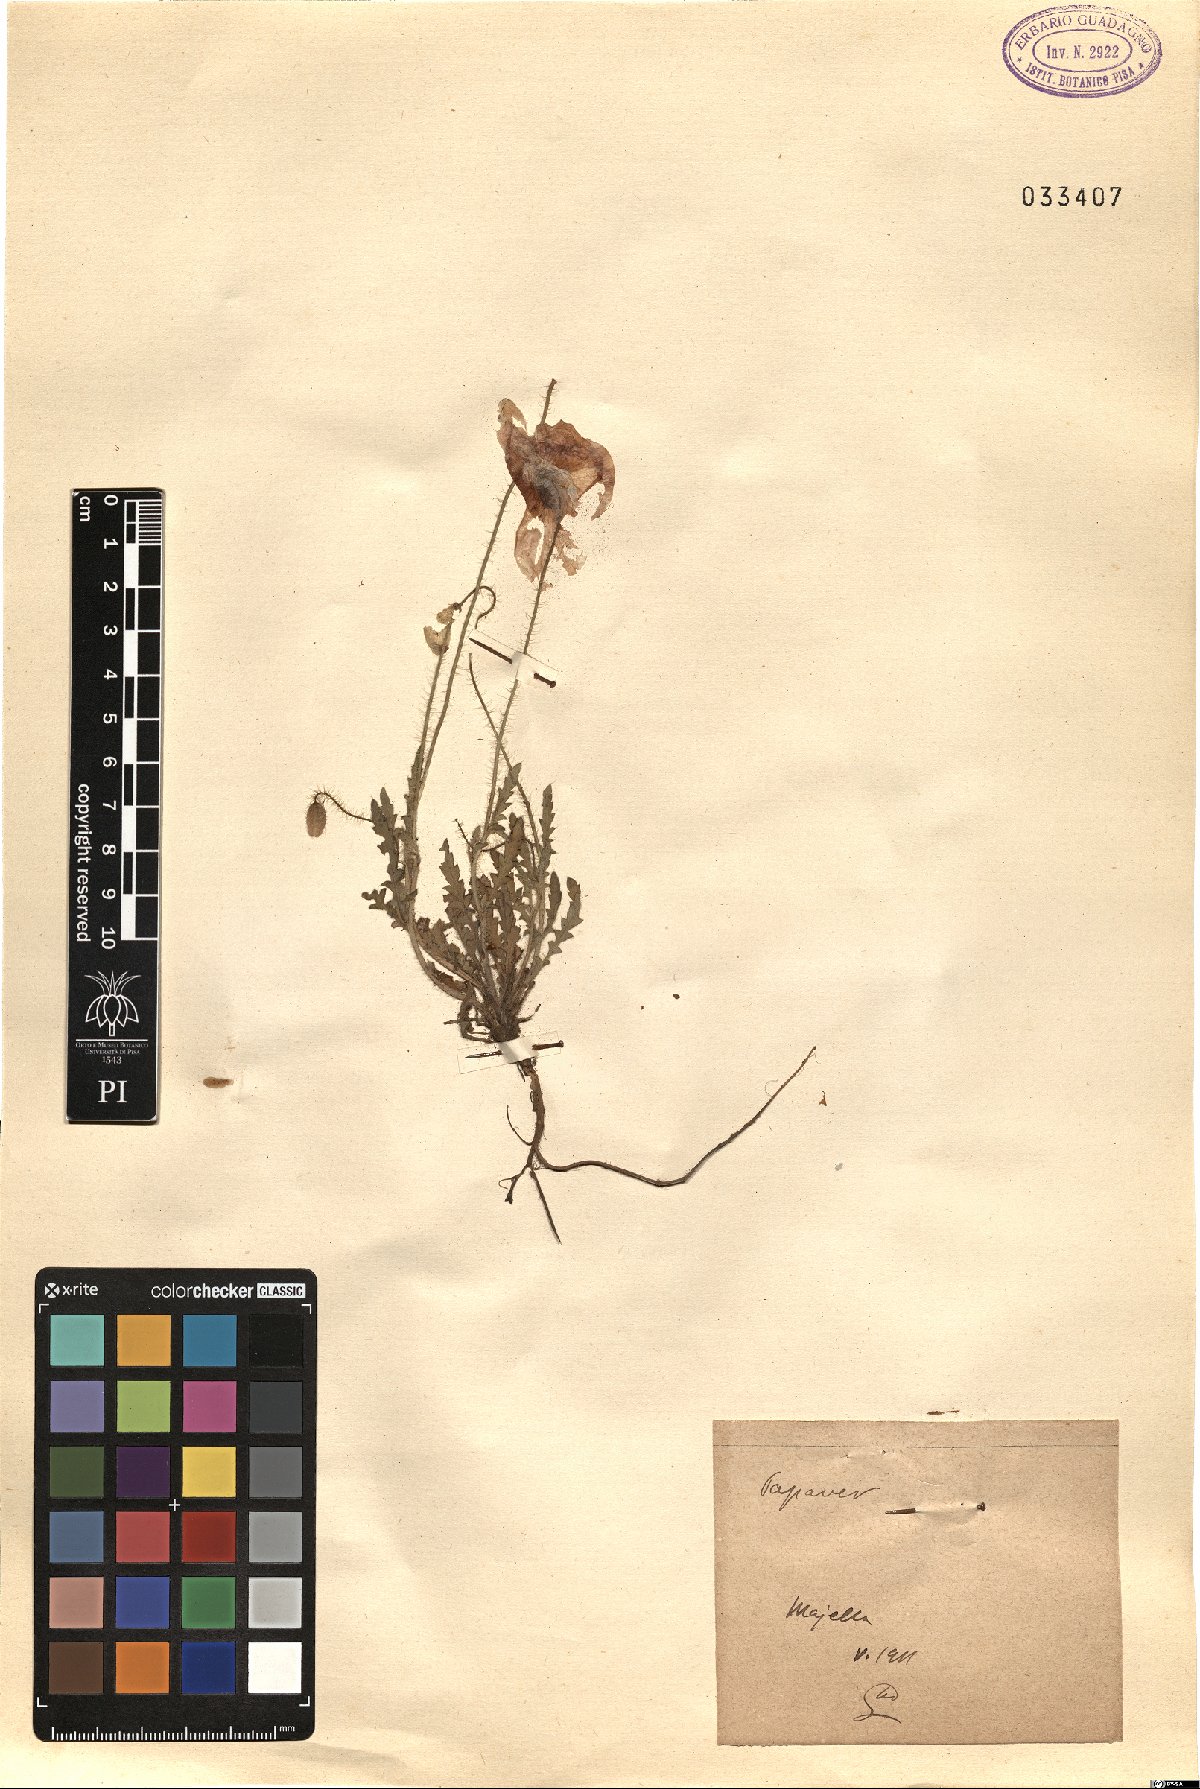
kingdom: Plantae
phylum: Tracheophyta
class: Magnoliopsida
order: Ranunculales
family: Papaveraceae
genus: Papaver
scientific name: Papaver
